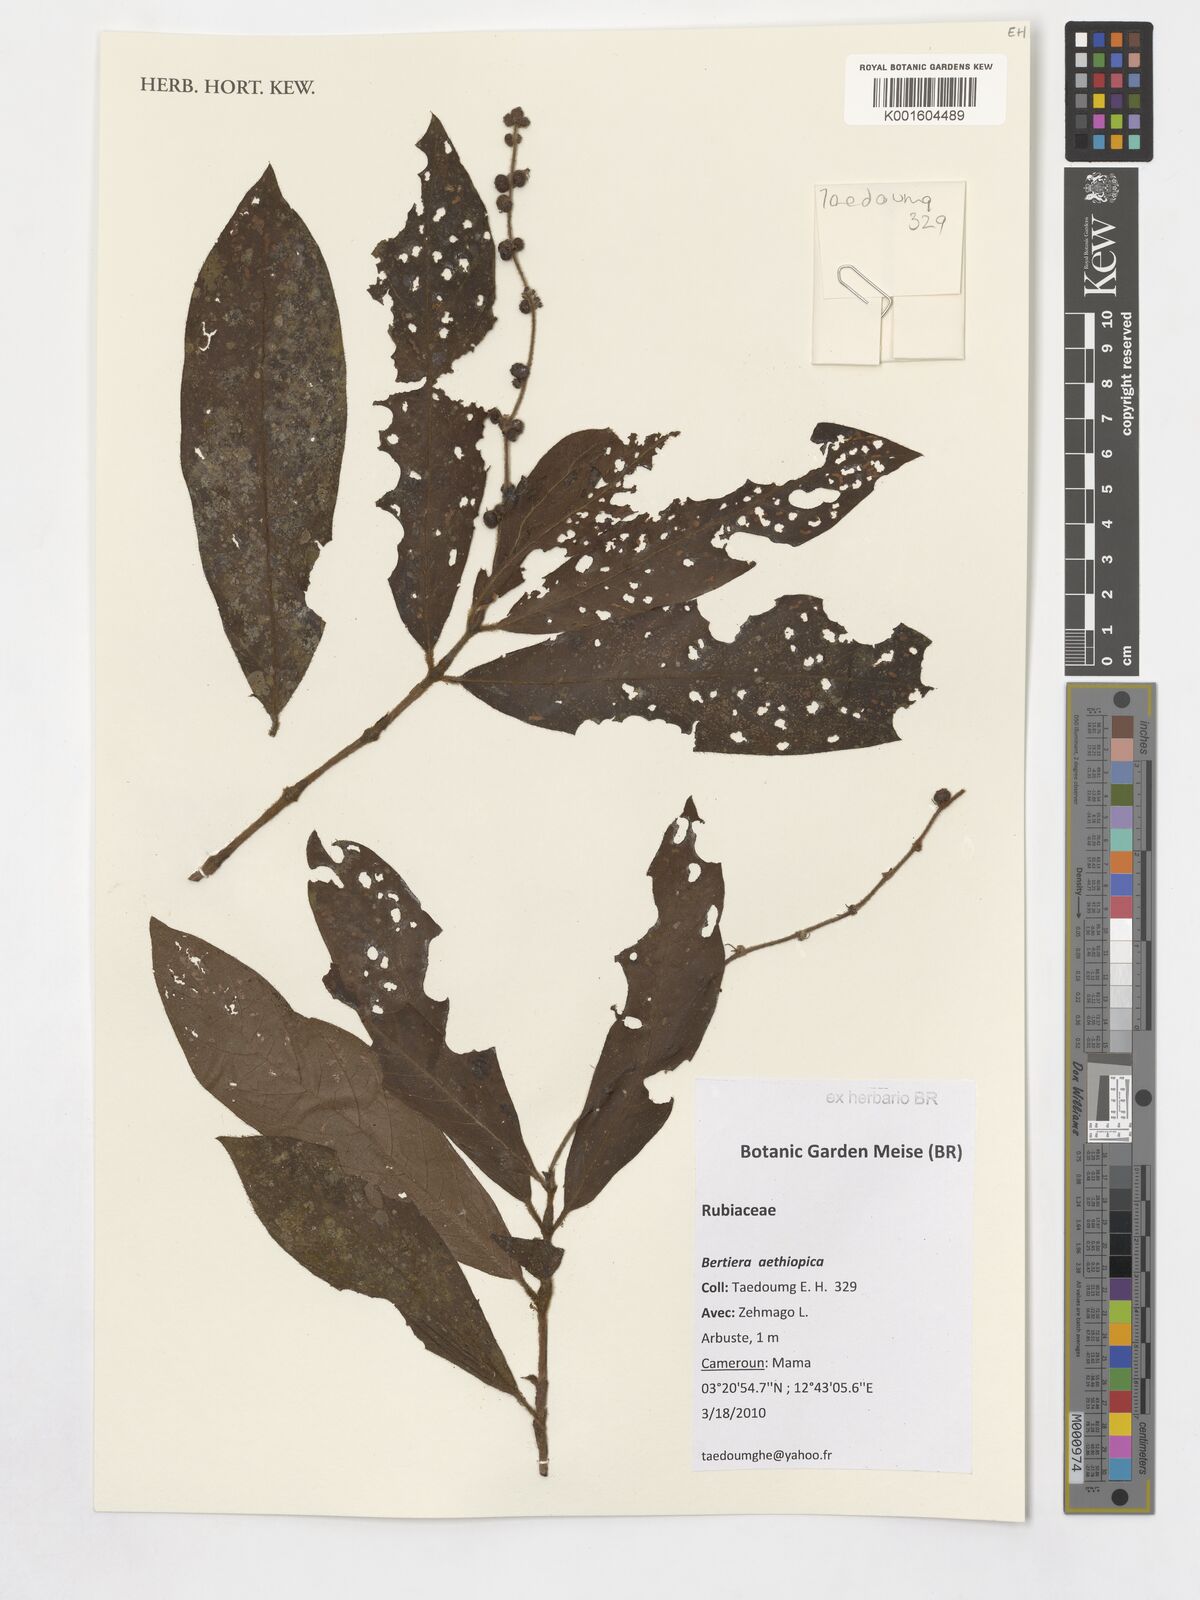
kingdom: Plantae
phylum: Tracheophyta
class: Magnoliopsida
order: Gentianales
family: Rubiaceae
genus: Bertiera
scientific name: Bertiera aethiopica
